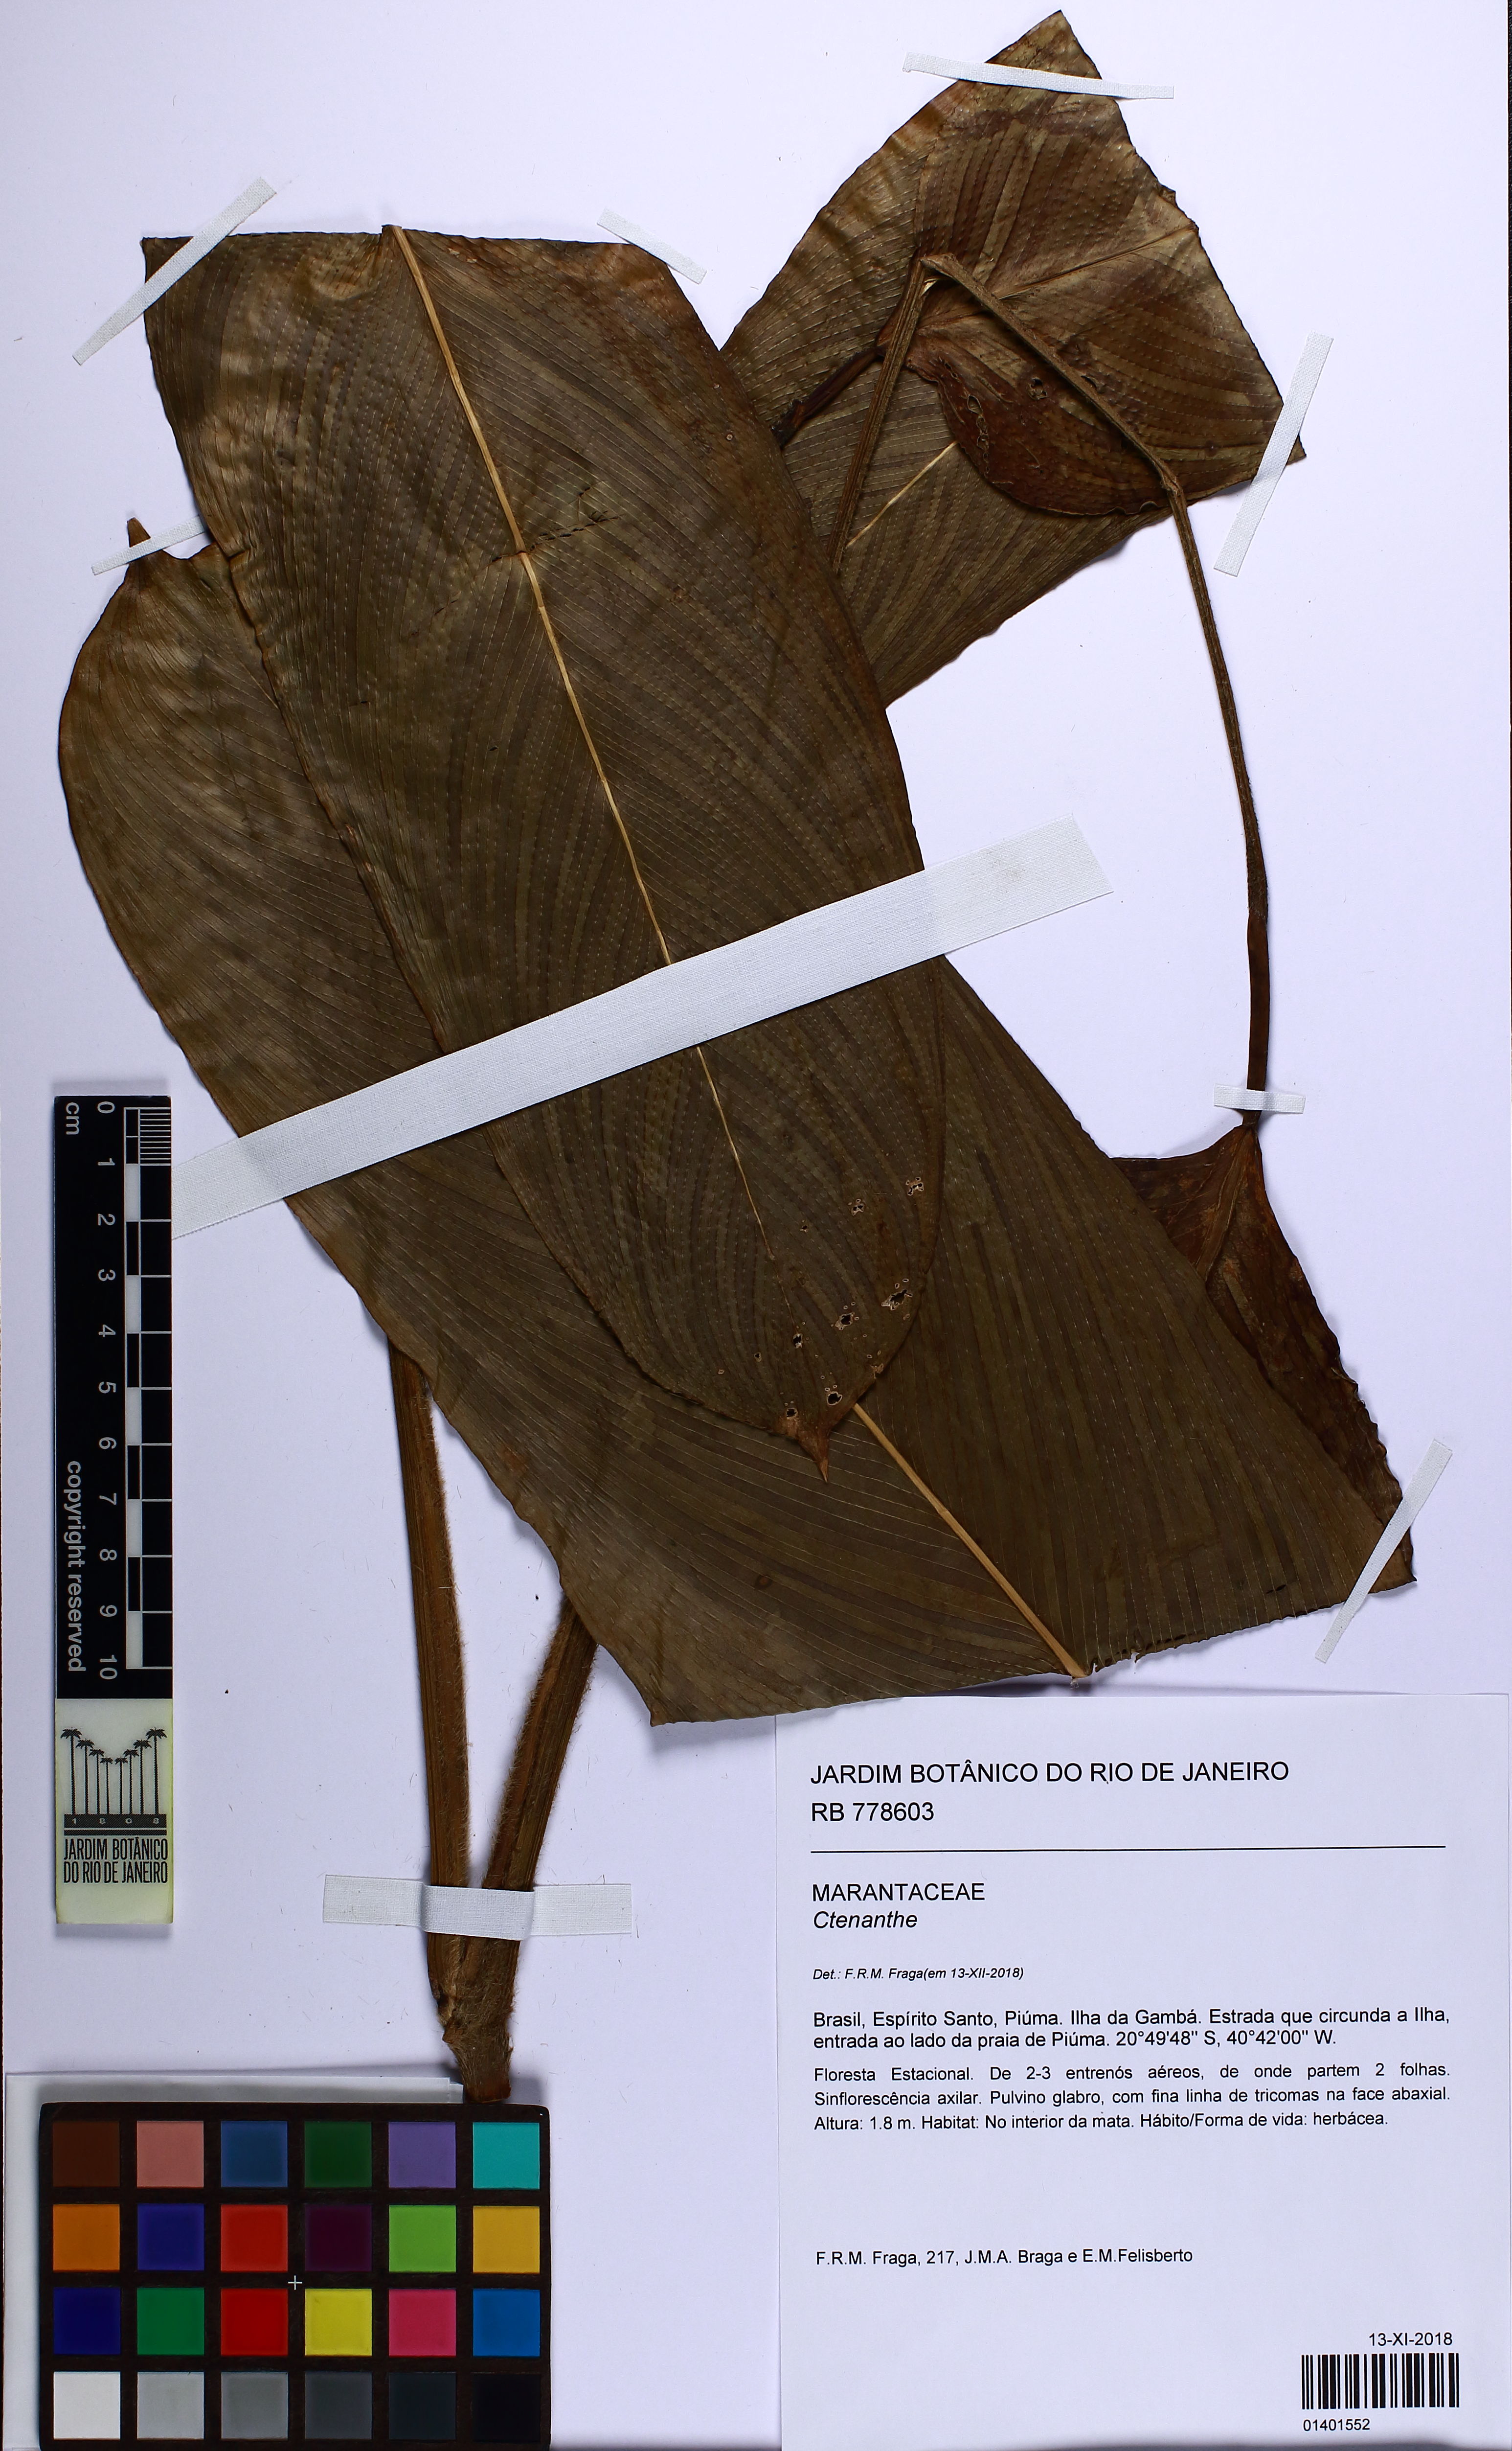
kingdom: Plantae
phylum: Tracheophyta
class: Liliopsida
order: Zingiberales
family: Marantaceae
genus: Ctenanthe
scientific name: Ctenanthe
